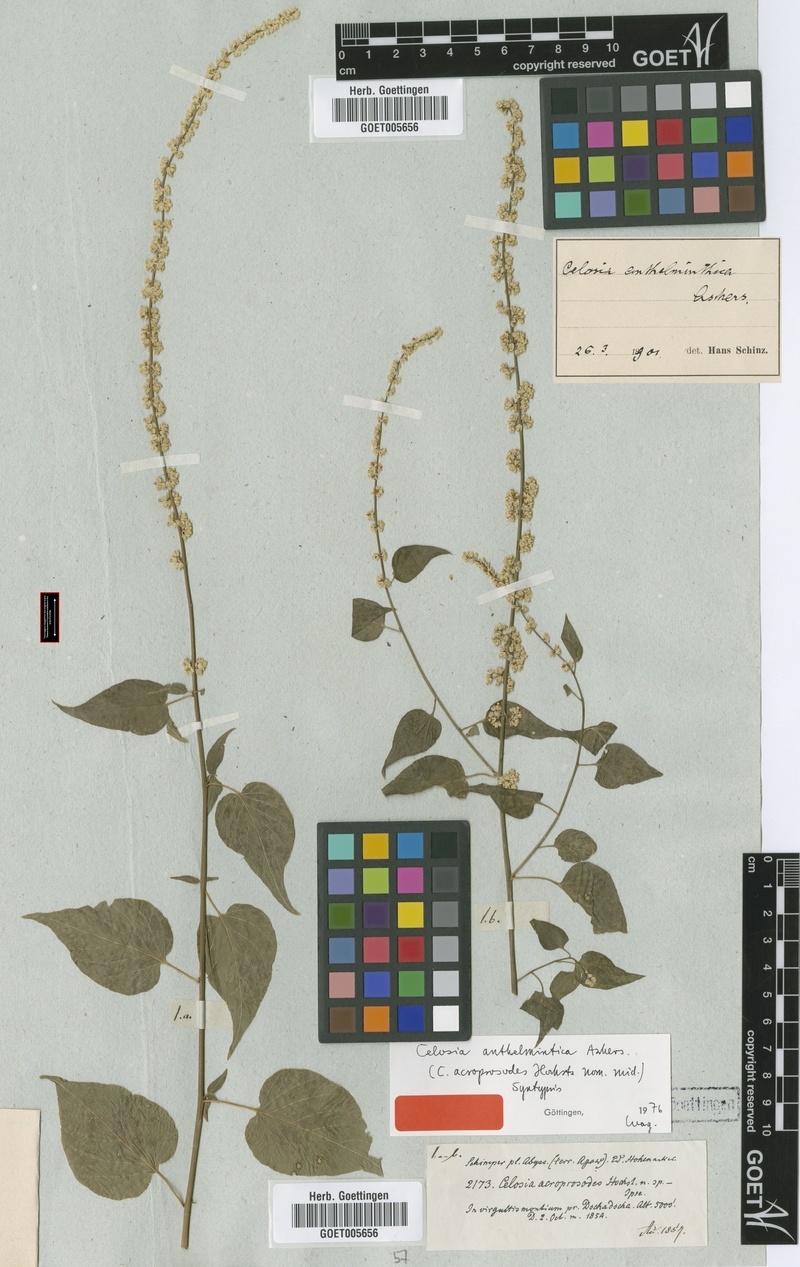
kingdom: Plantae
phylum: Tracheophyta
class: Magnoliopsida
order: Caryophyllales
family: Amaranthaceae
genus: Celosia
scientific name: Celosia anthelminthica
